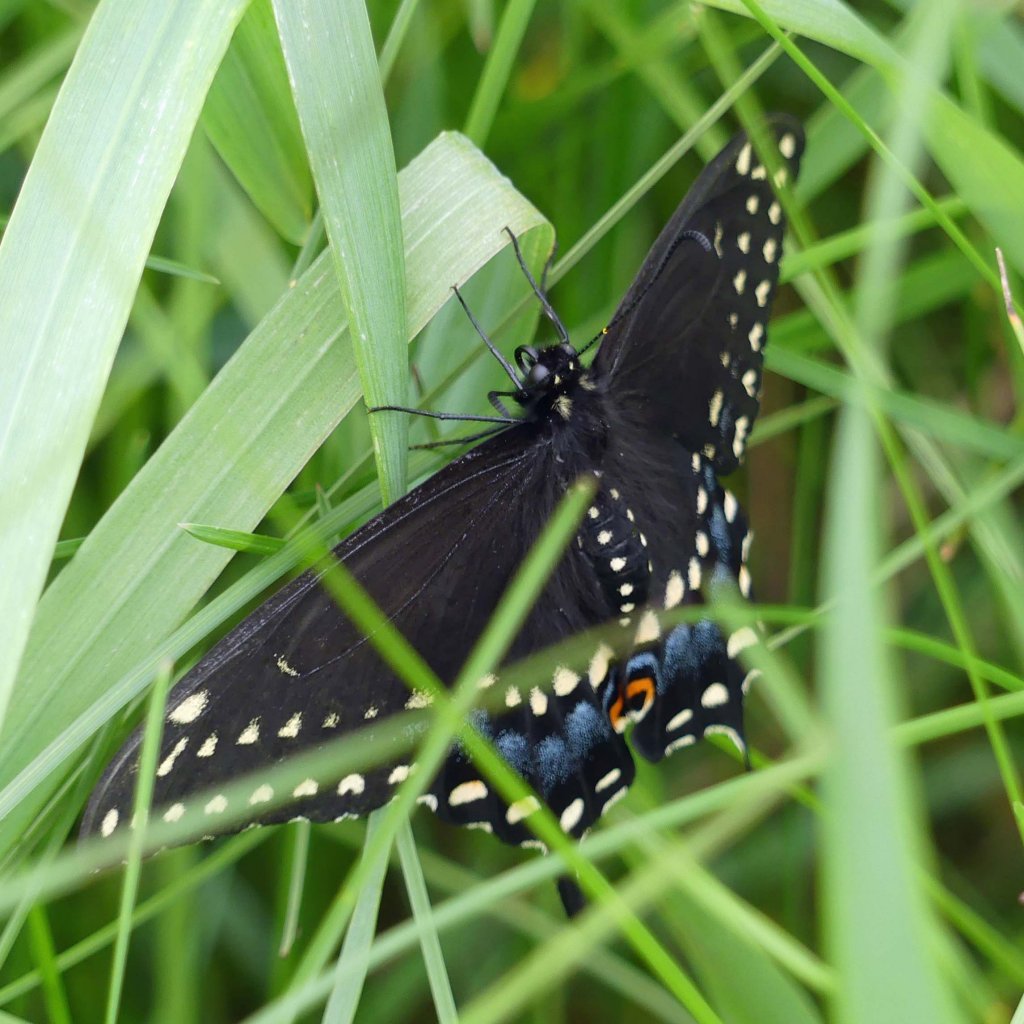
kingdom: Animalia
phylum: Arthropoda
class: Insecta
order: Lepidoptera
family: Papilionidae
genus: Papilio
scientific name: Papilio polyxenes
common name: Black Swallowtail
